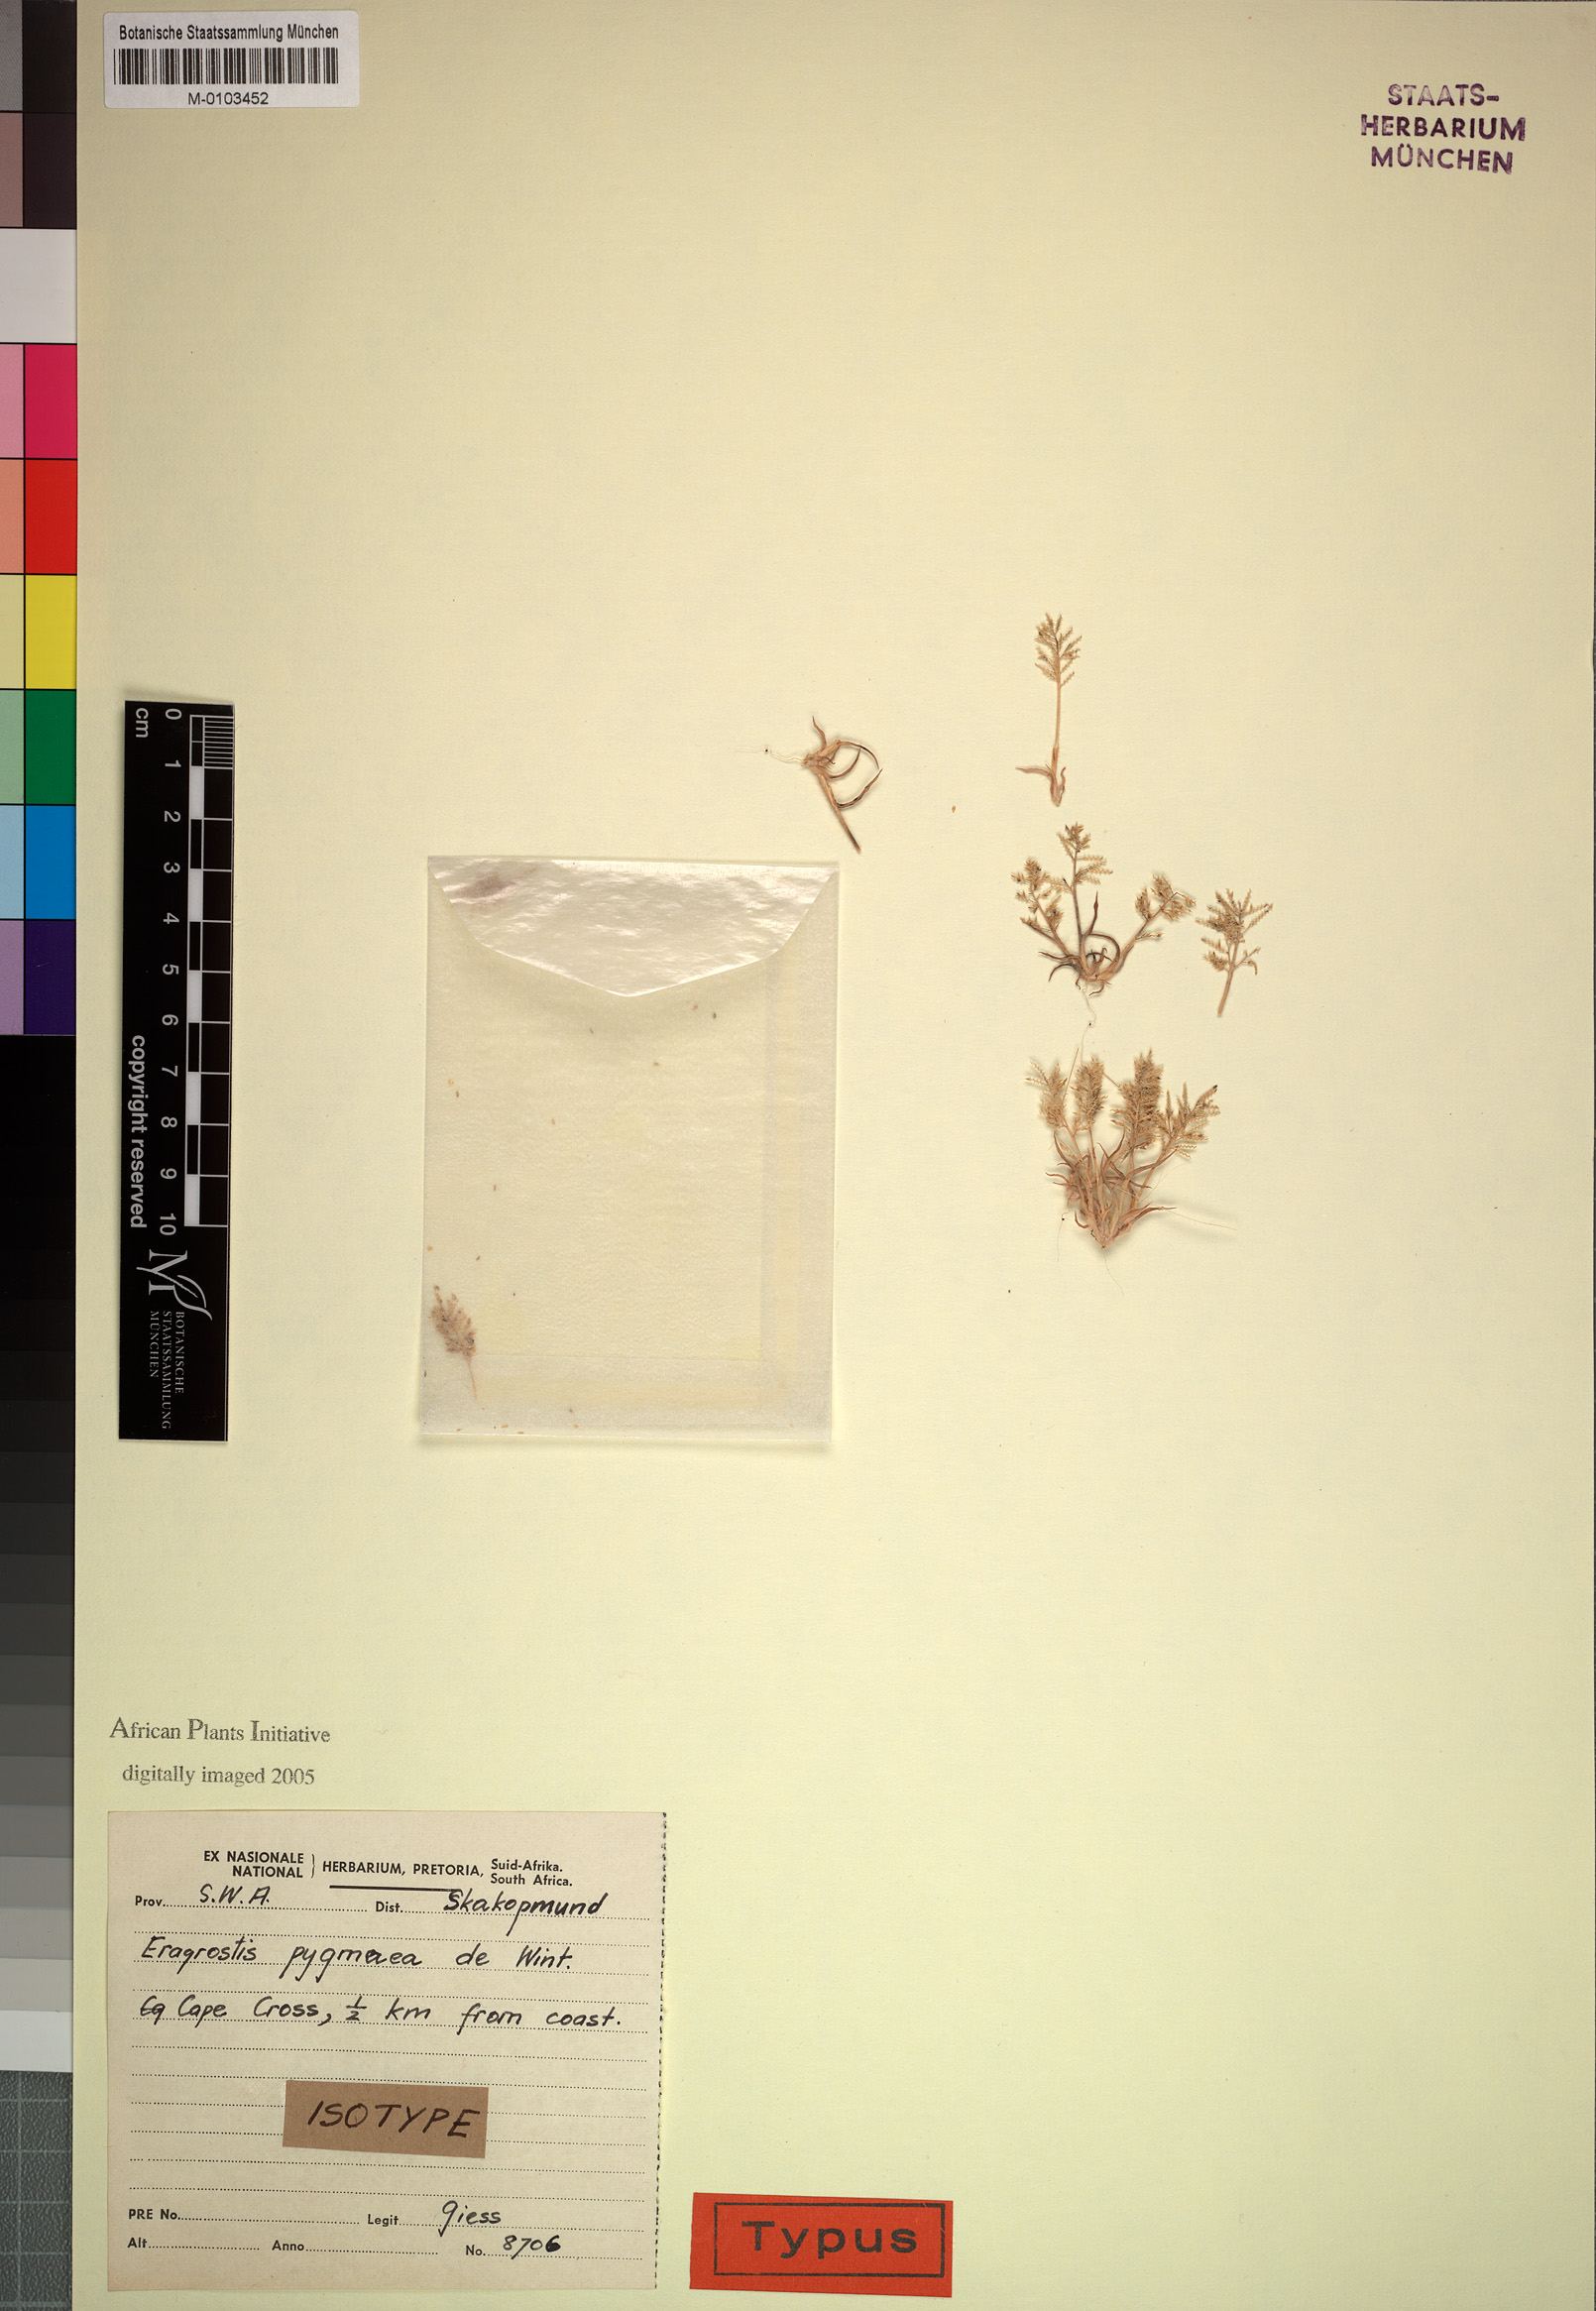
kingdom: Plantae
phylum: Tracheophyta
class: Liliopsida
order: Poales
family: Poaceae
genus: Eragrostis
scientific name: Eragrostis pygmaea
